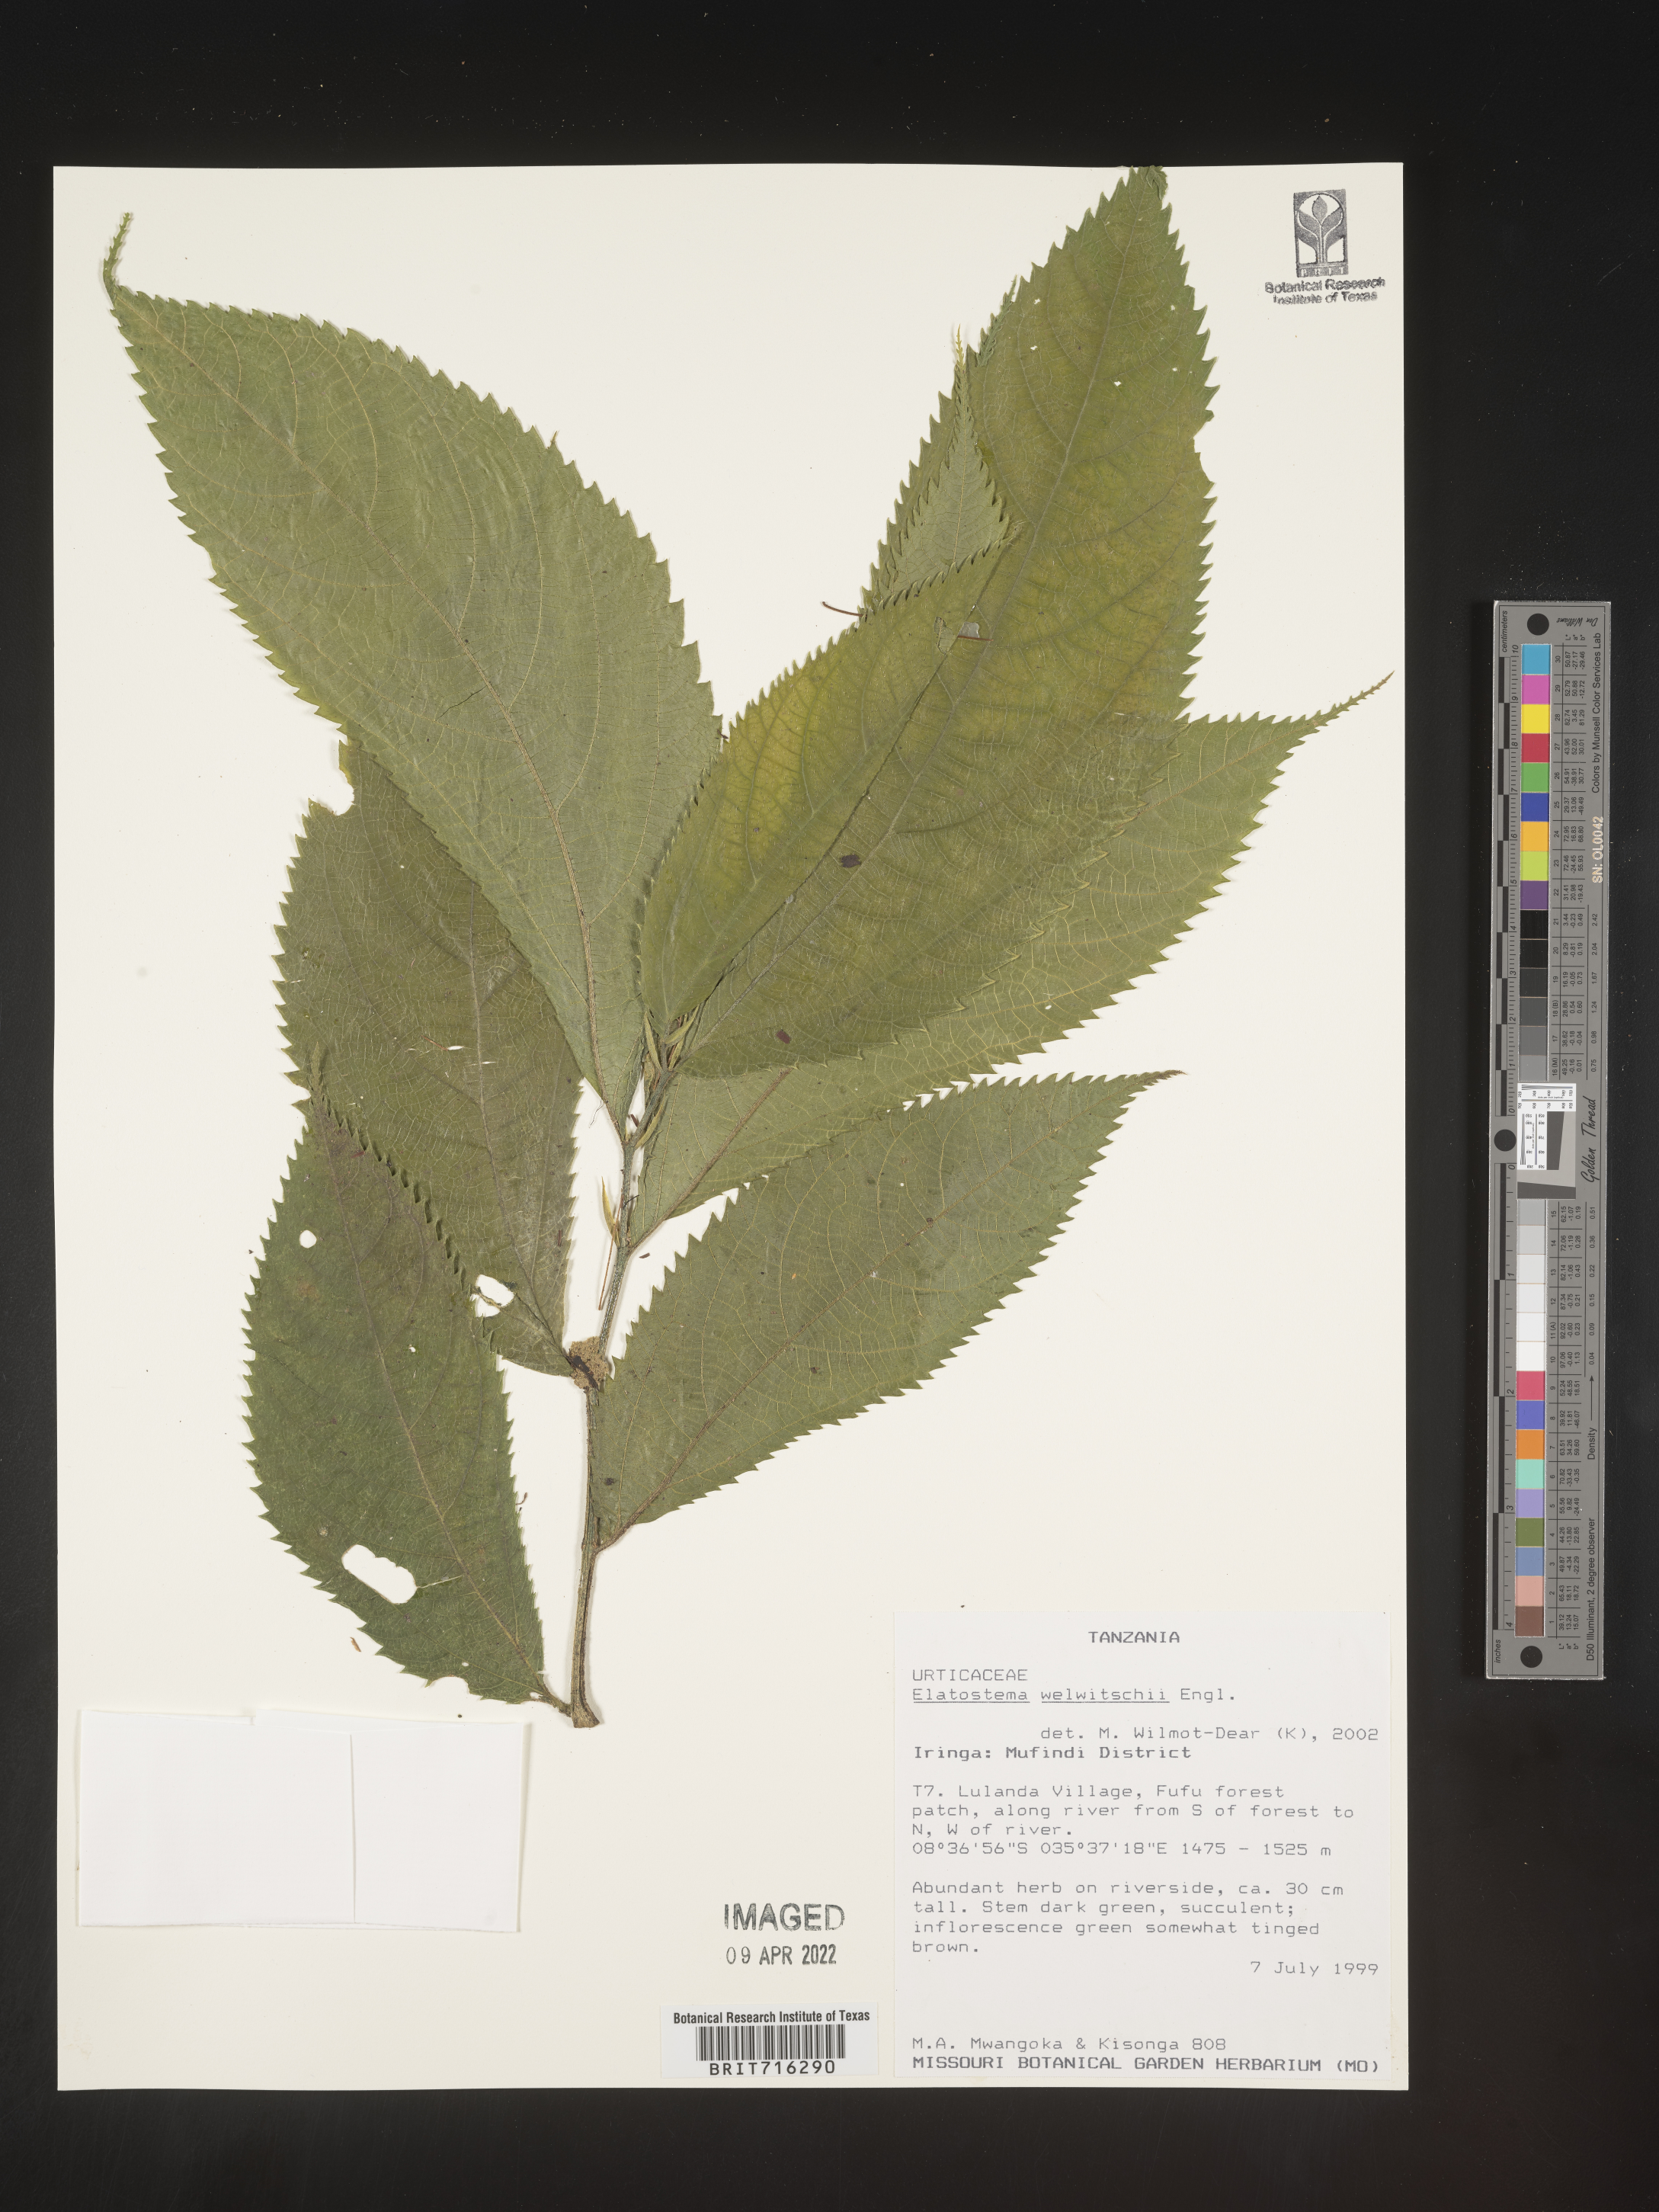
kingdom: Plantae
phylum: Tracheophyta
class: Magnoliopsida
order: Rosales
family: Urticaceae
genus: Elatostema
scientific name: Elatostema
